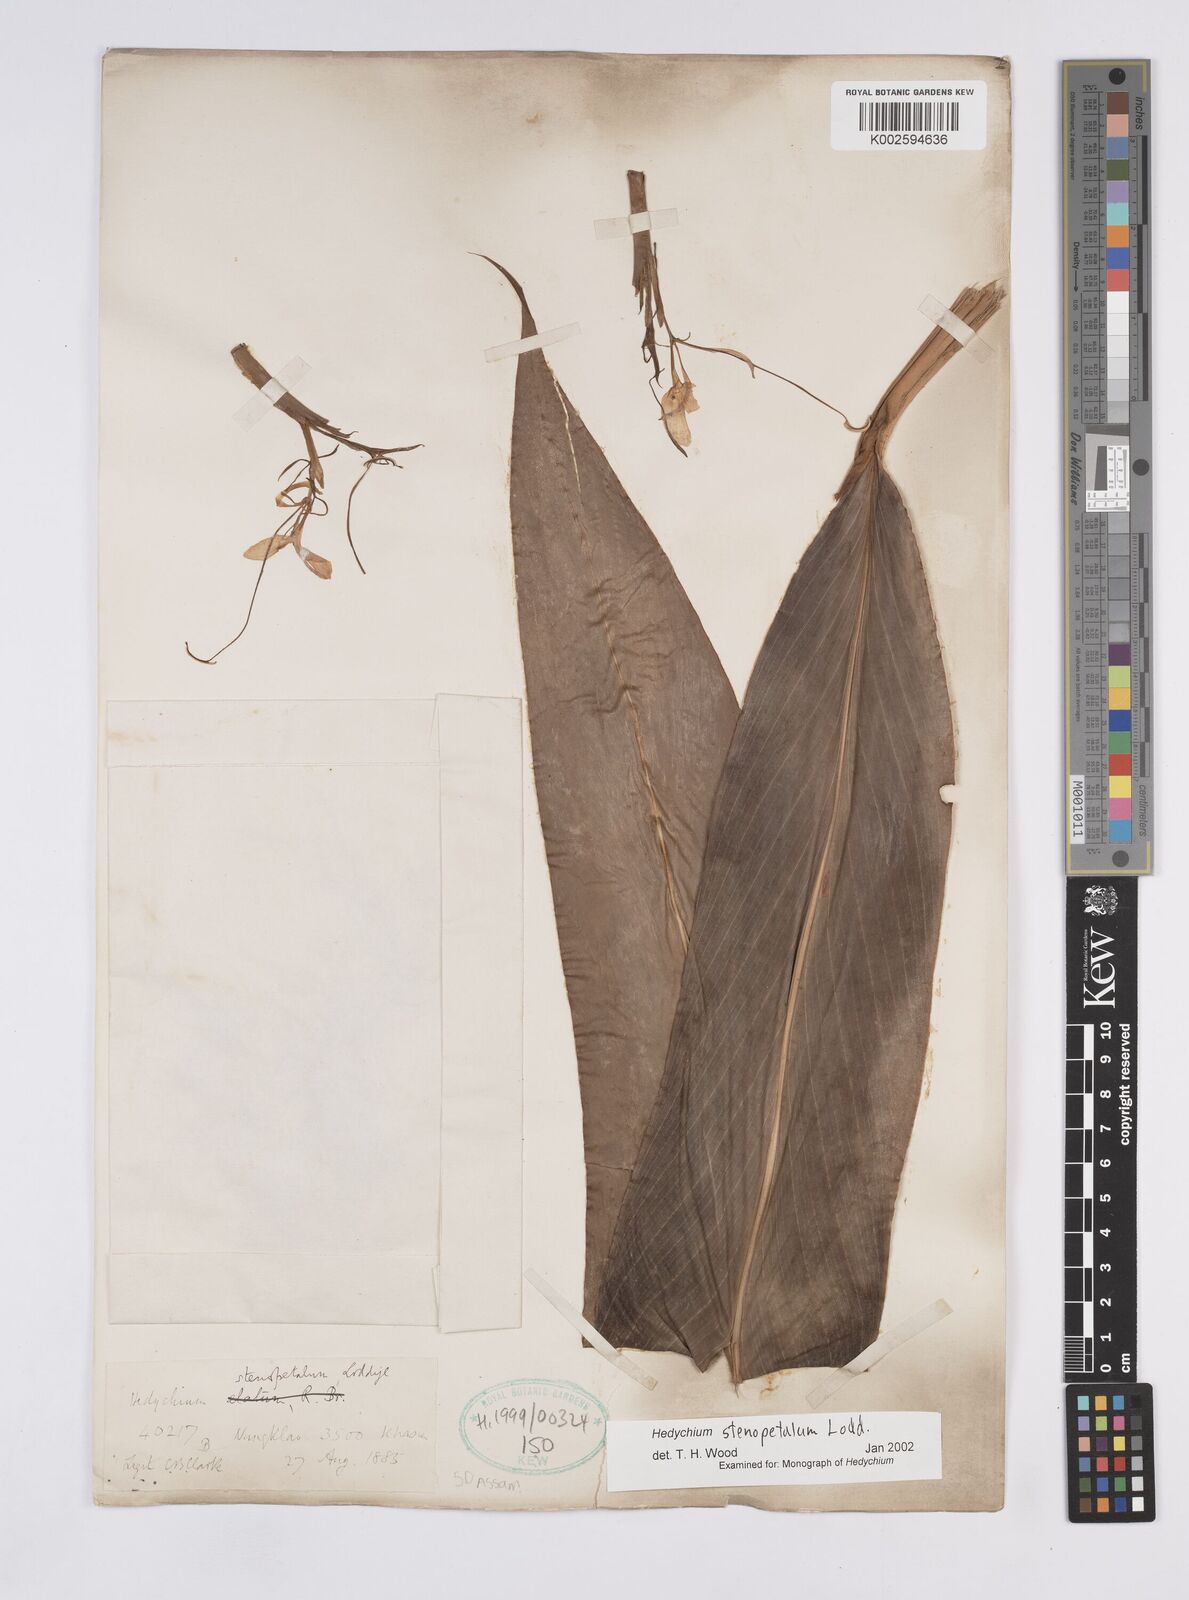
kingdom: Plantae
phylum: Tracheophyta
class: Liliopsida
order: Zingiberales
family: Zingiberaceae
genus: Hedychium
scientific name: Hedychium stenopetalum
